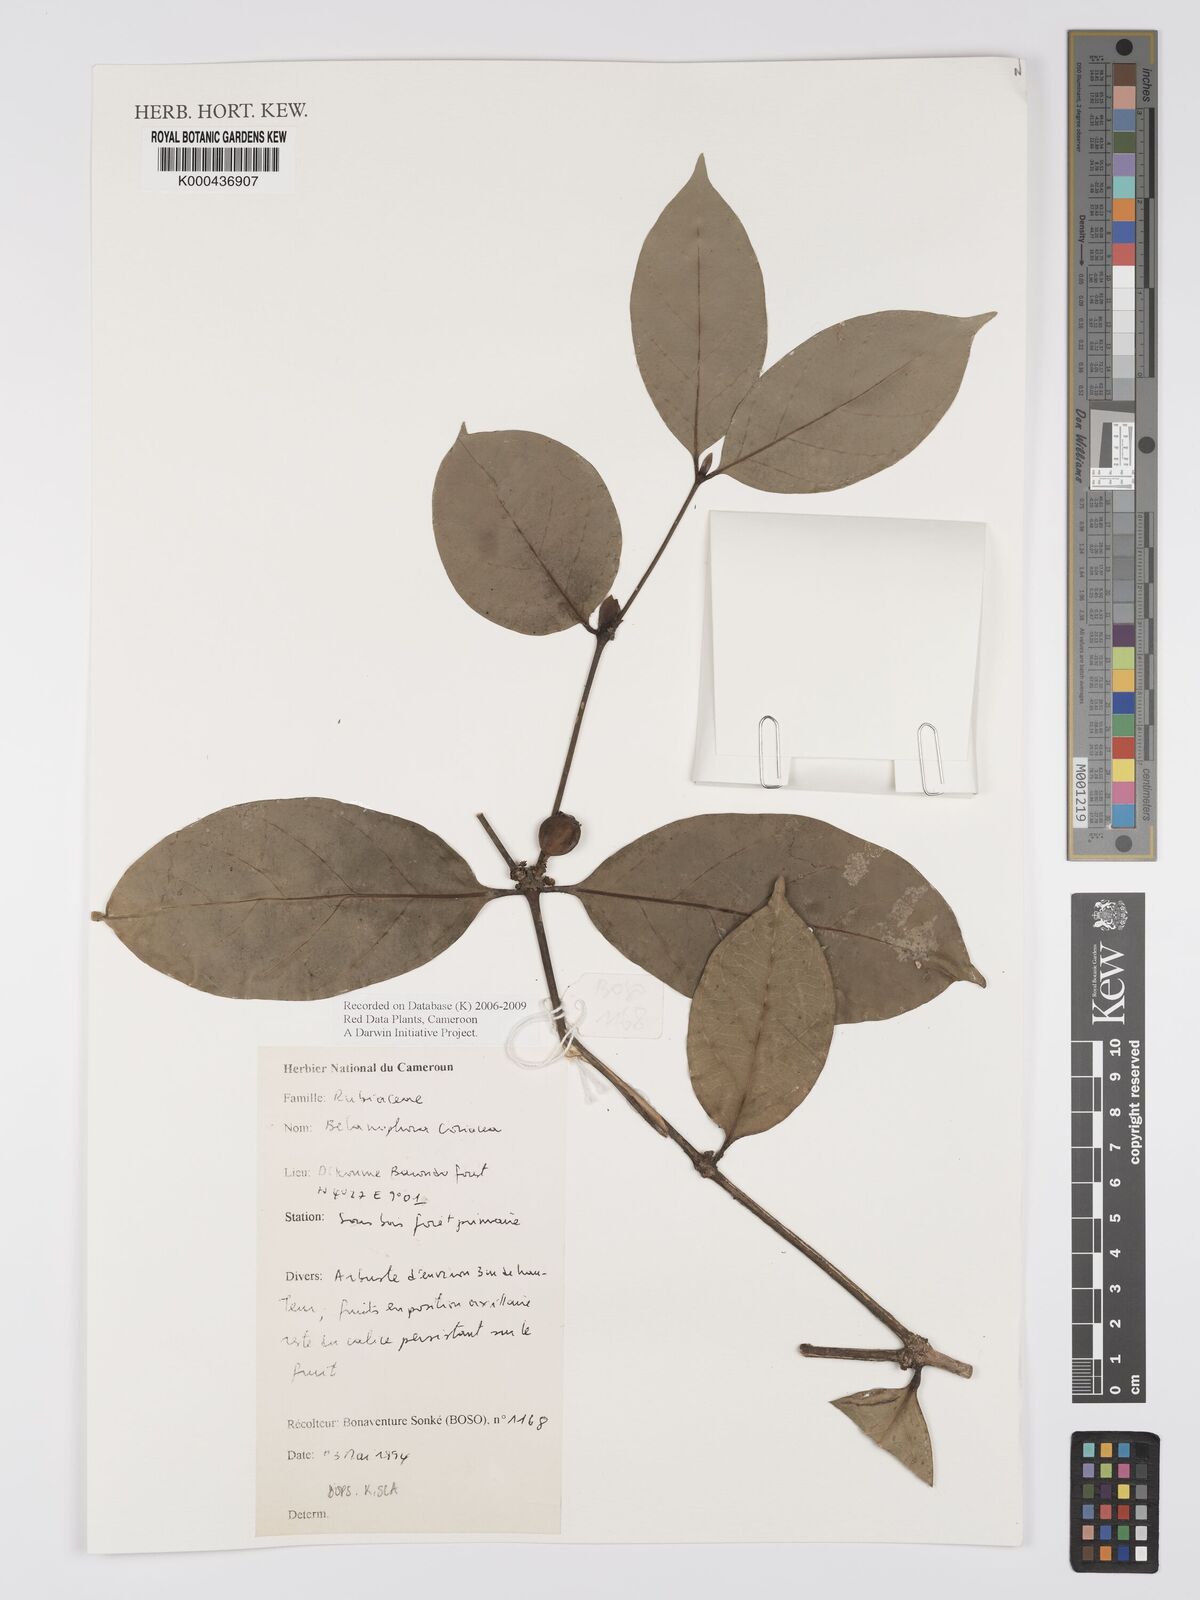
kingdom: Plantae
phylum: Tracheophyta
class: Magnoliopsida
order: Gentianales
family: Rubiaceae
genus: Belonophora
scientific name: Belonophora coriacea
